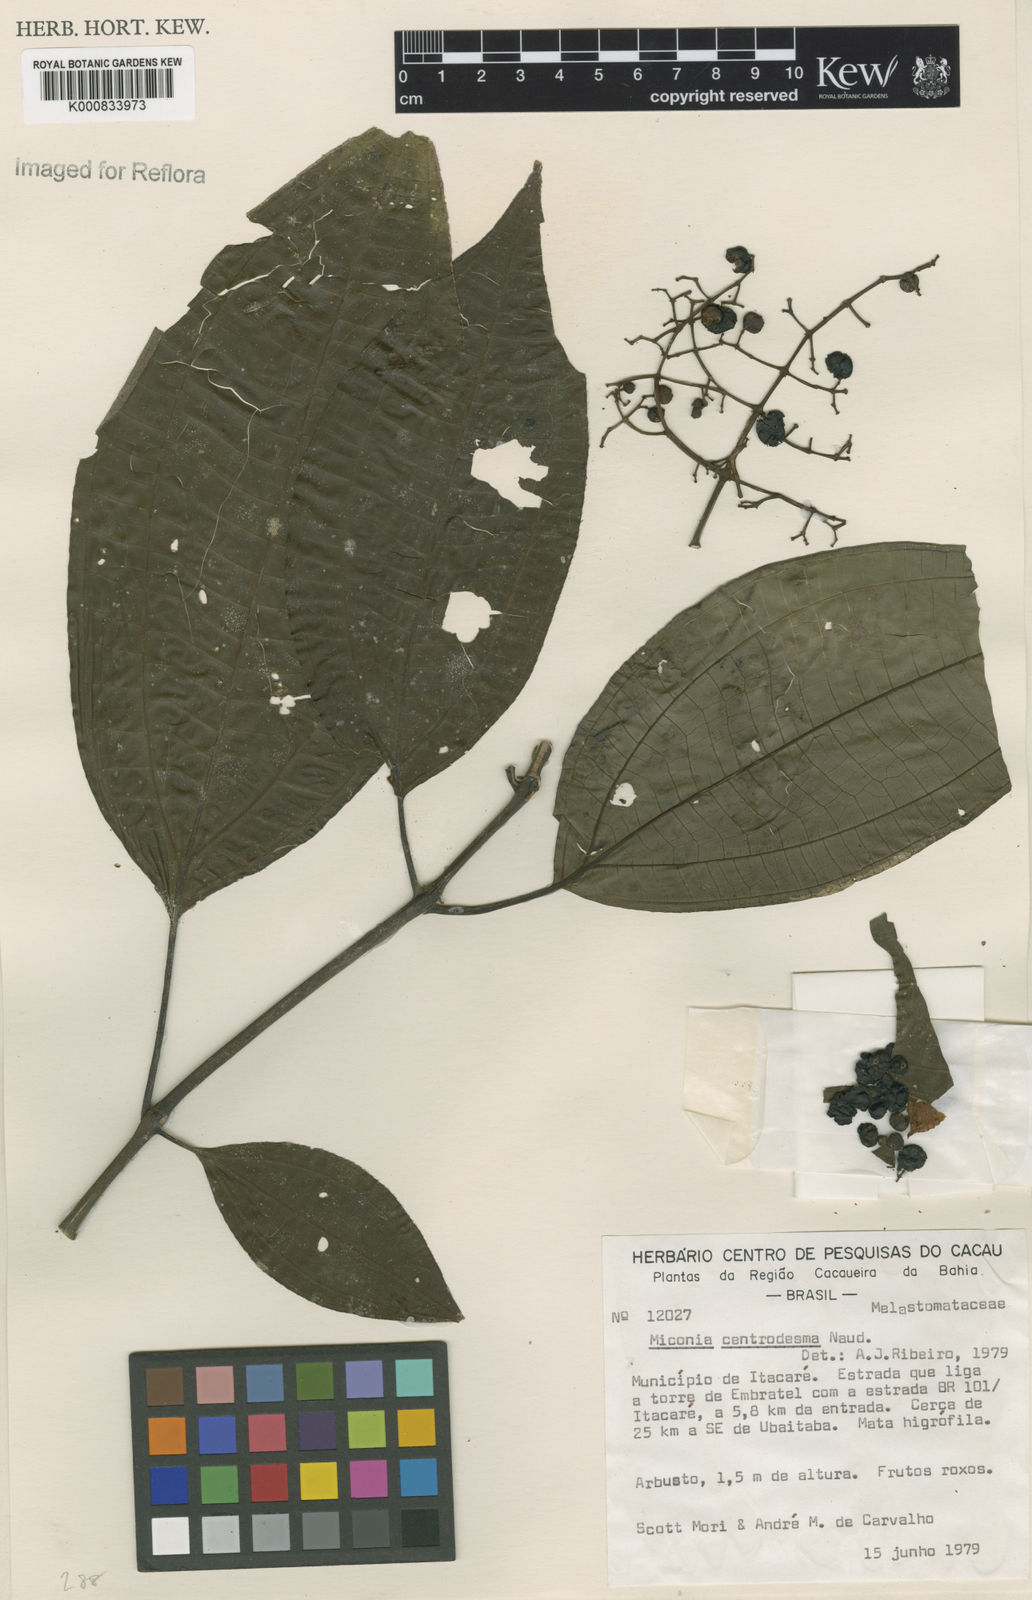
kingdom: Plantae
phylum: Tracheophyta
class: Magnoliopsida
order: Myrtales
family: Melastomataceae
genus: Miconia
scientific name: Miconia centrodesma
